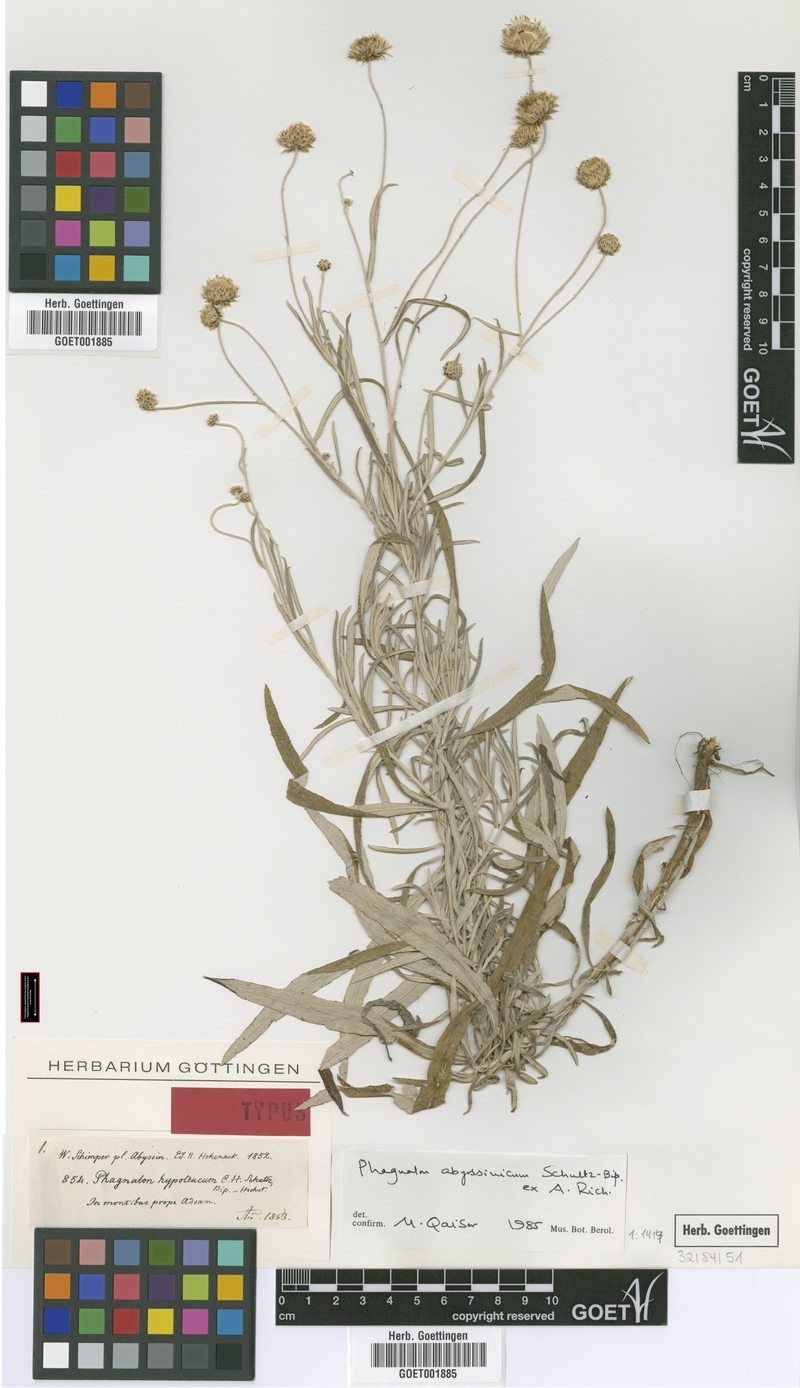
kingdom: Plantae
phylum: Tracheophyta
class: Magnoliopsida
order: Asterales
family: Asteraceae
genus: Phagnalon
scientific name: Phagnalon abyssinicum
